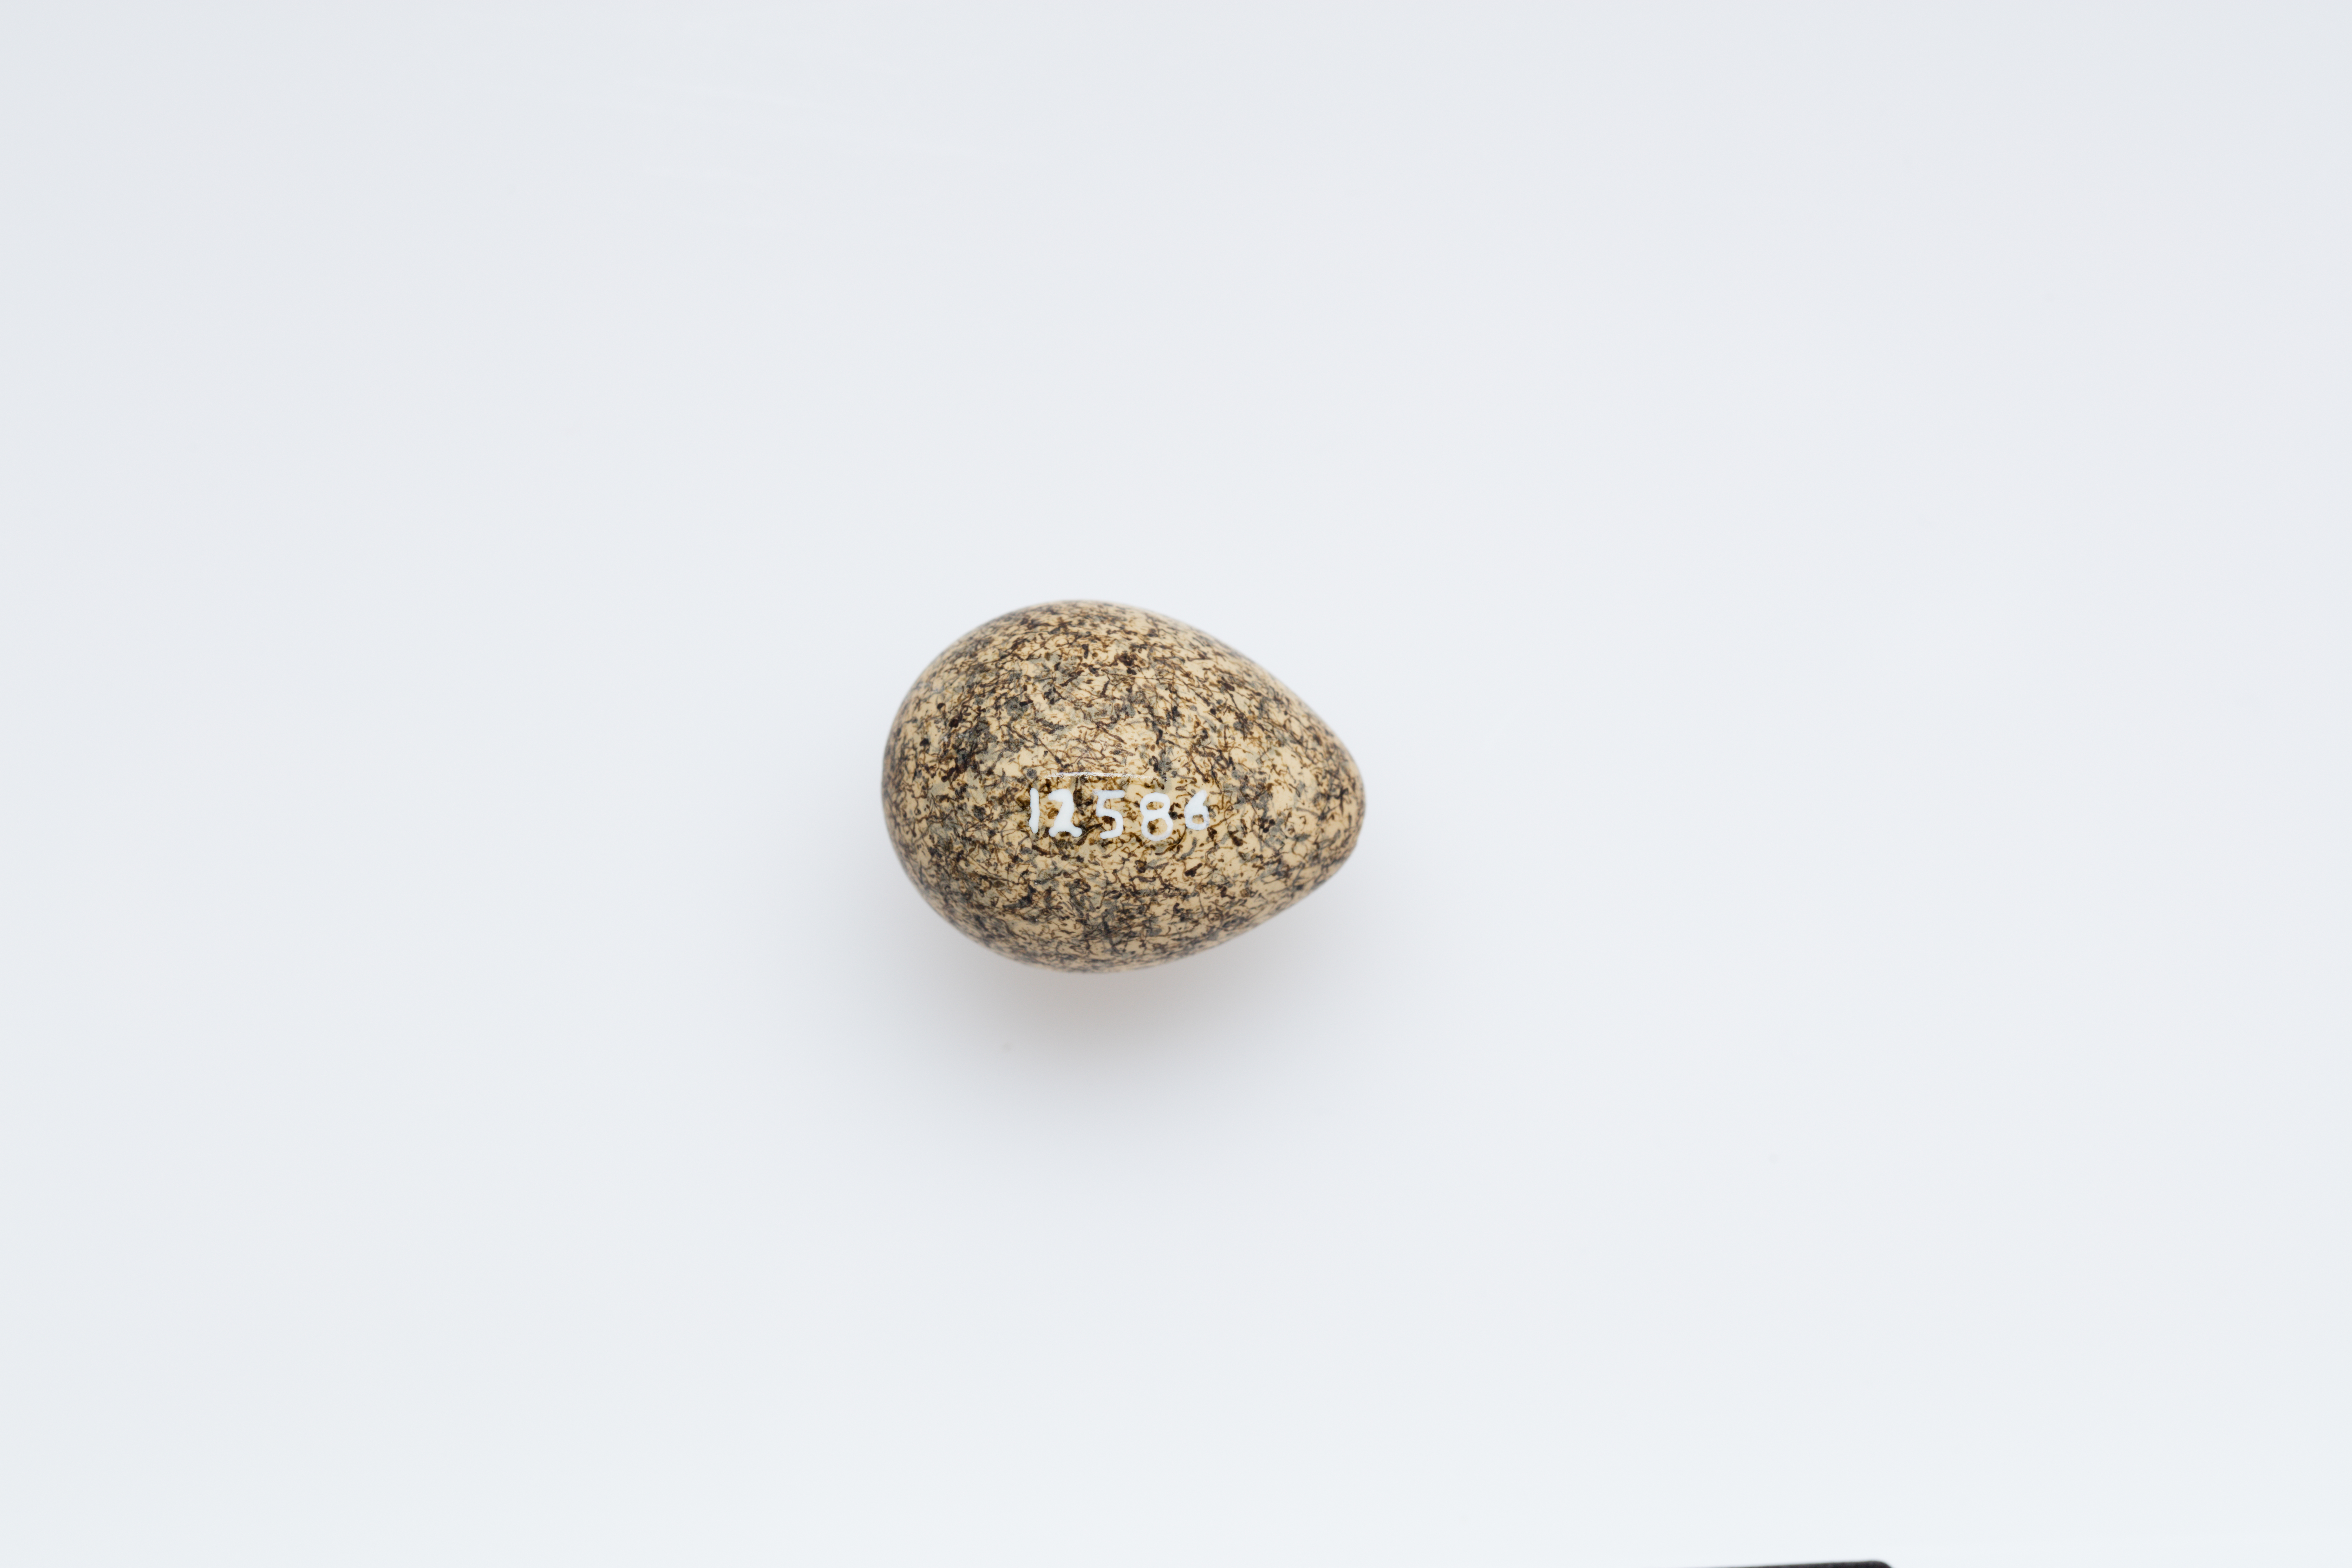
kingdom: Animalia
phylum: Chordata
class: Aves
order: Charadriiformes
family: Charadriidae
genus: Erythrogonys
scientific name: Erythrogonys cinctus
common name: Red-kneed dotterel
